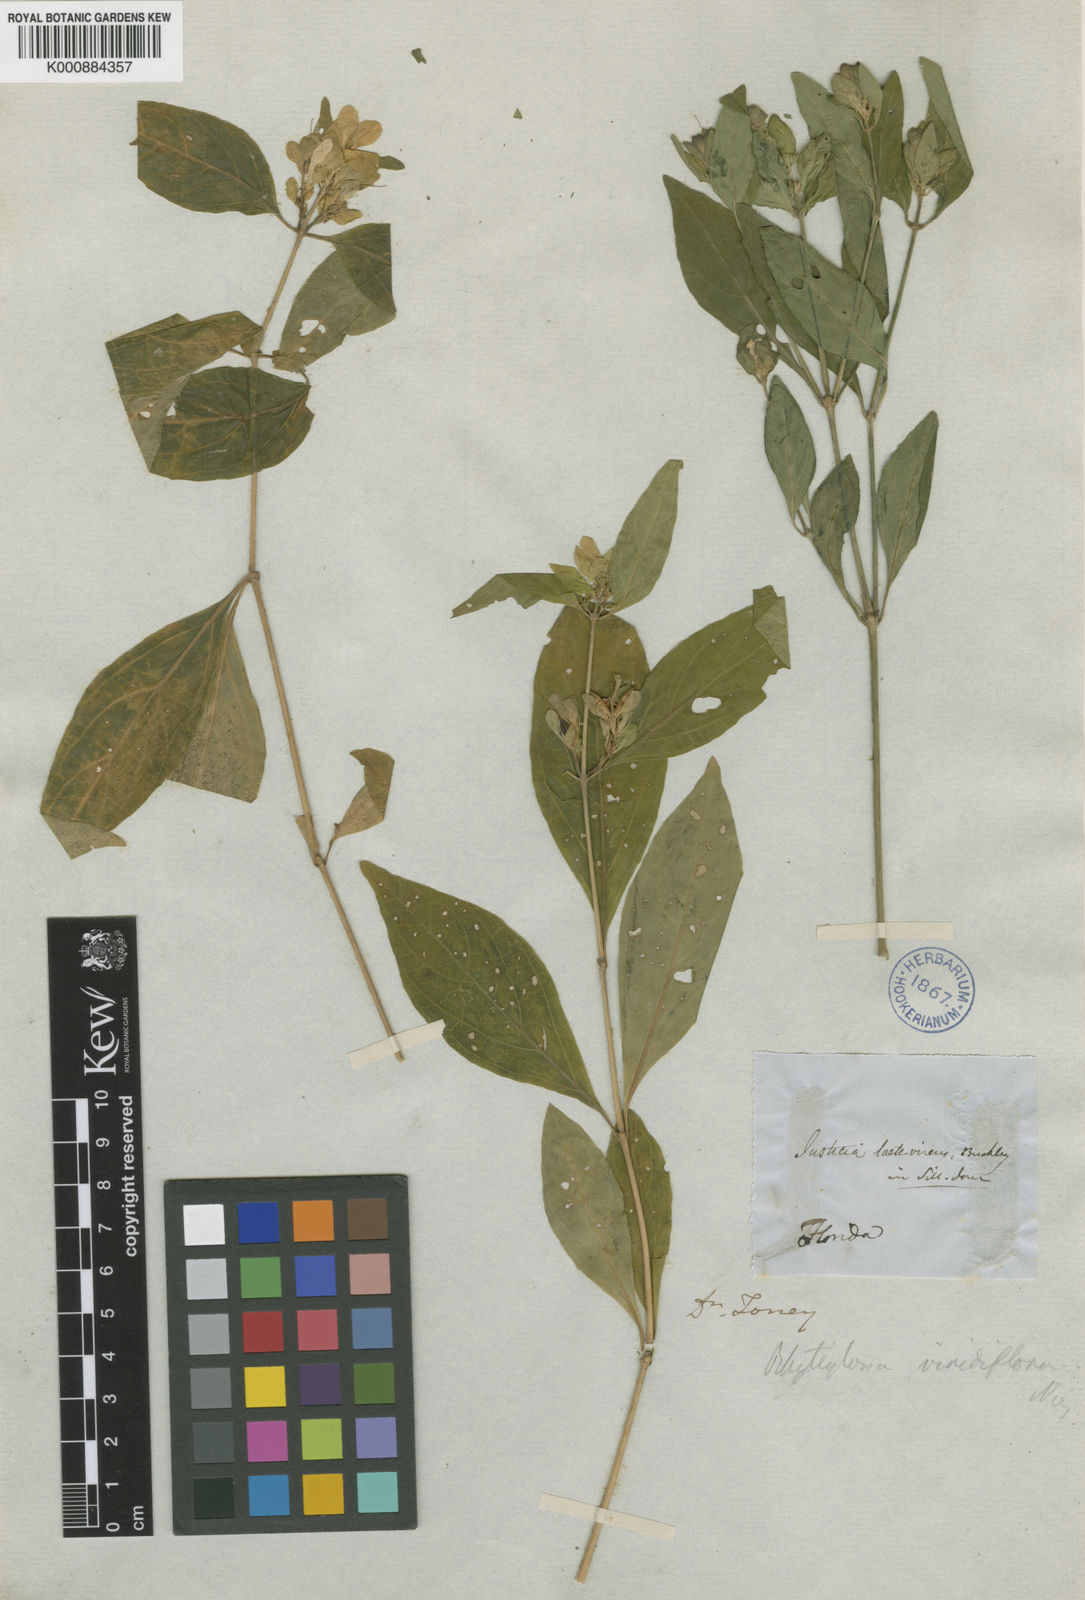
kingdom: Plantae
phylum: Tracheophyta
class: Magnoliopsida
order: Lamiales
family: Acanthaceae
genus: Yeatesia
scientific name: Yeatesia viridiflora
